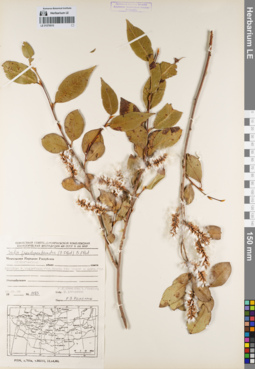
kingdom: Plantae
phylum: Tracheophyta
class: Magnoliopsida
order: Malpighiales
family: Salicaceae
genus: Salix
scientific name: Salix pseudopentandra
